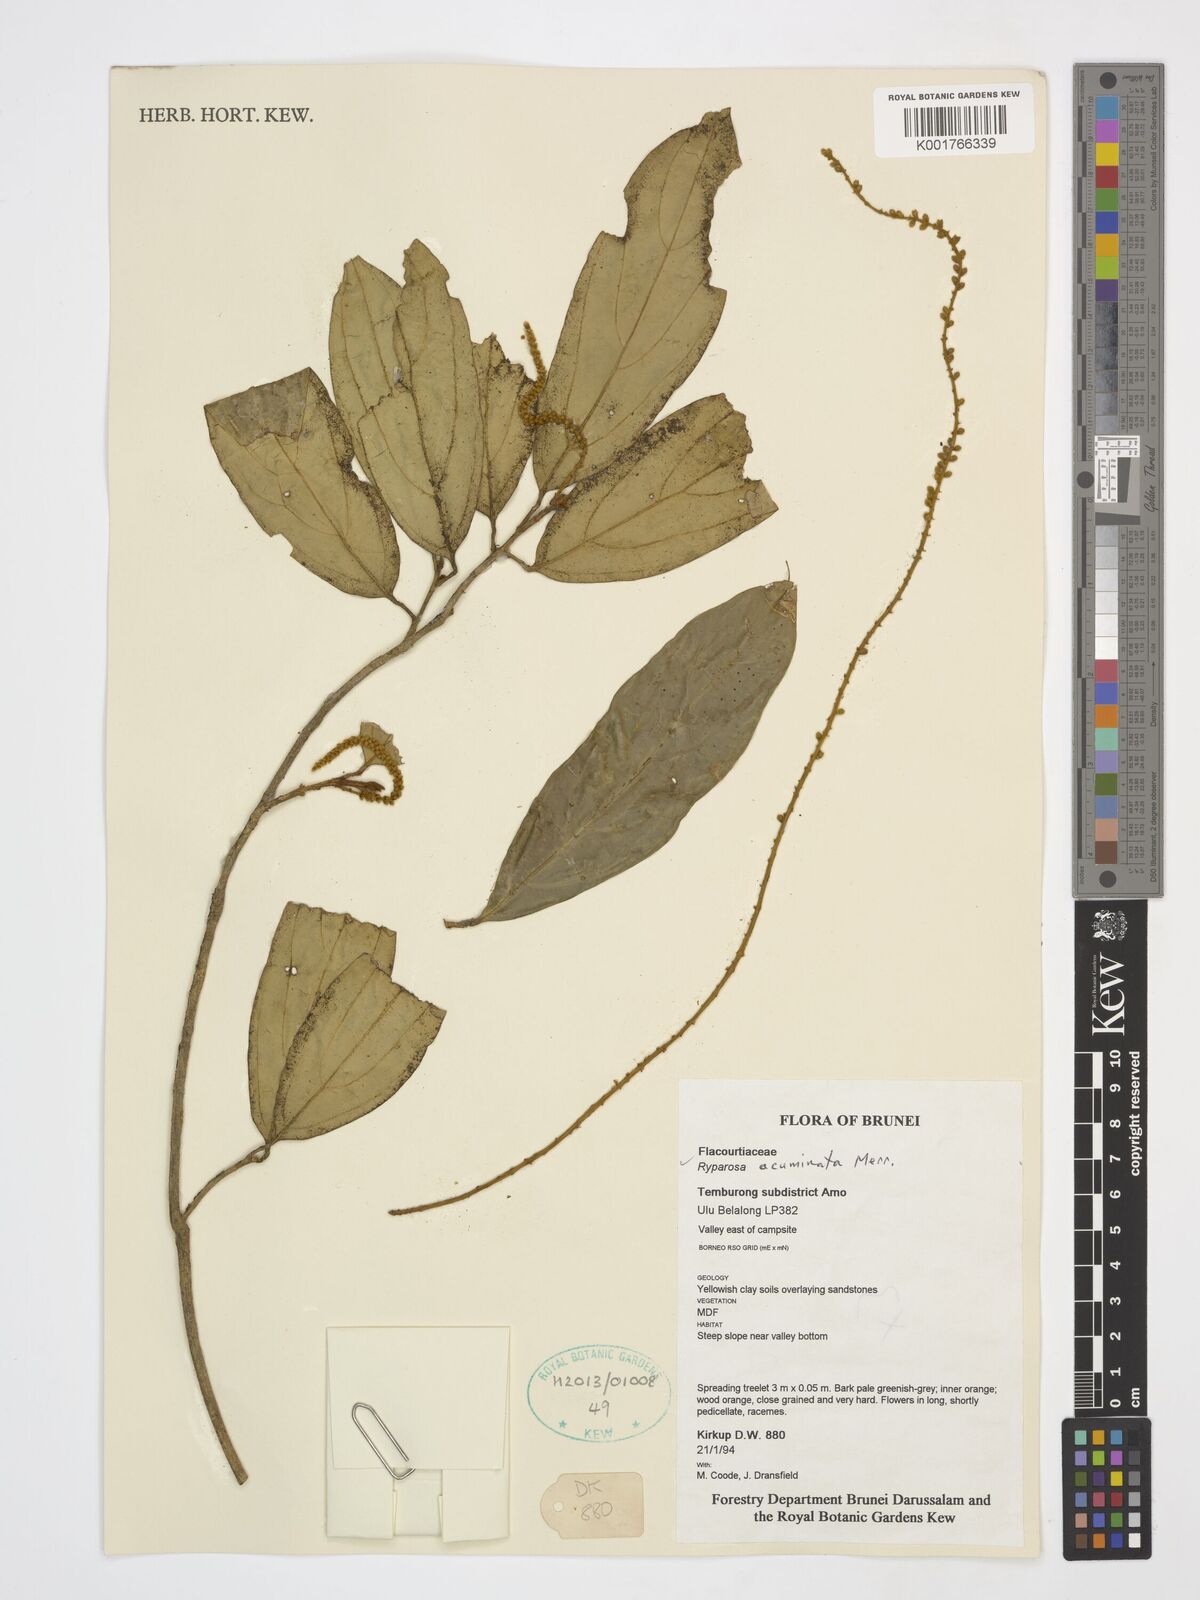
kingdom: Plantae
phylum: Tracheophyta
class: Magnoliopsida
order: Malpighiales
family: Achariaceae
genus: Ryparosa
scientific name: Ryparosa acuminata
